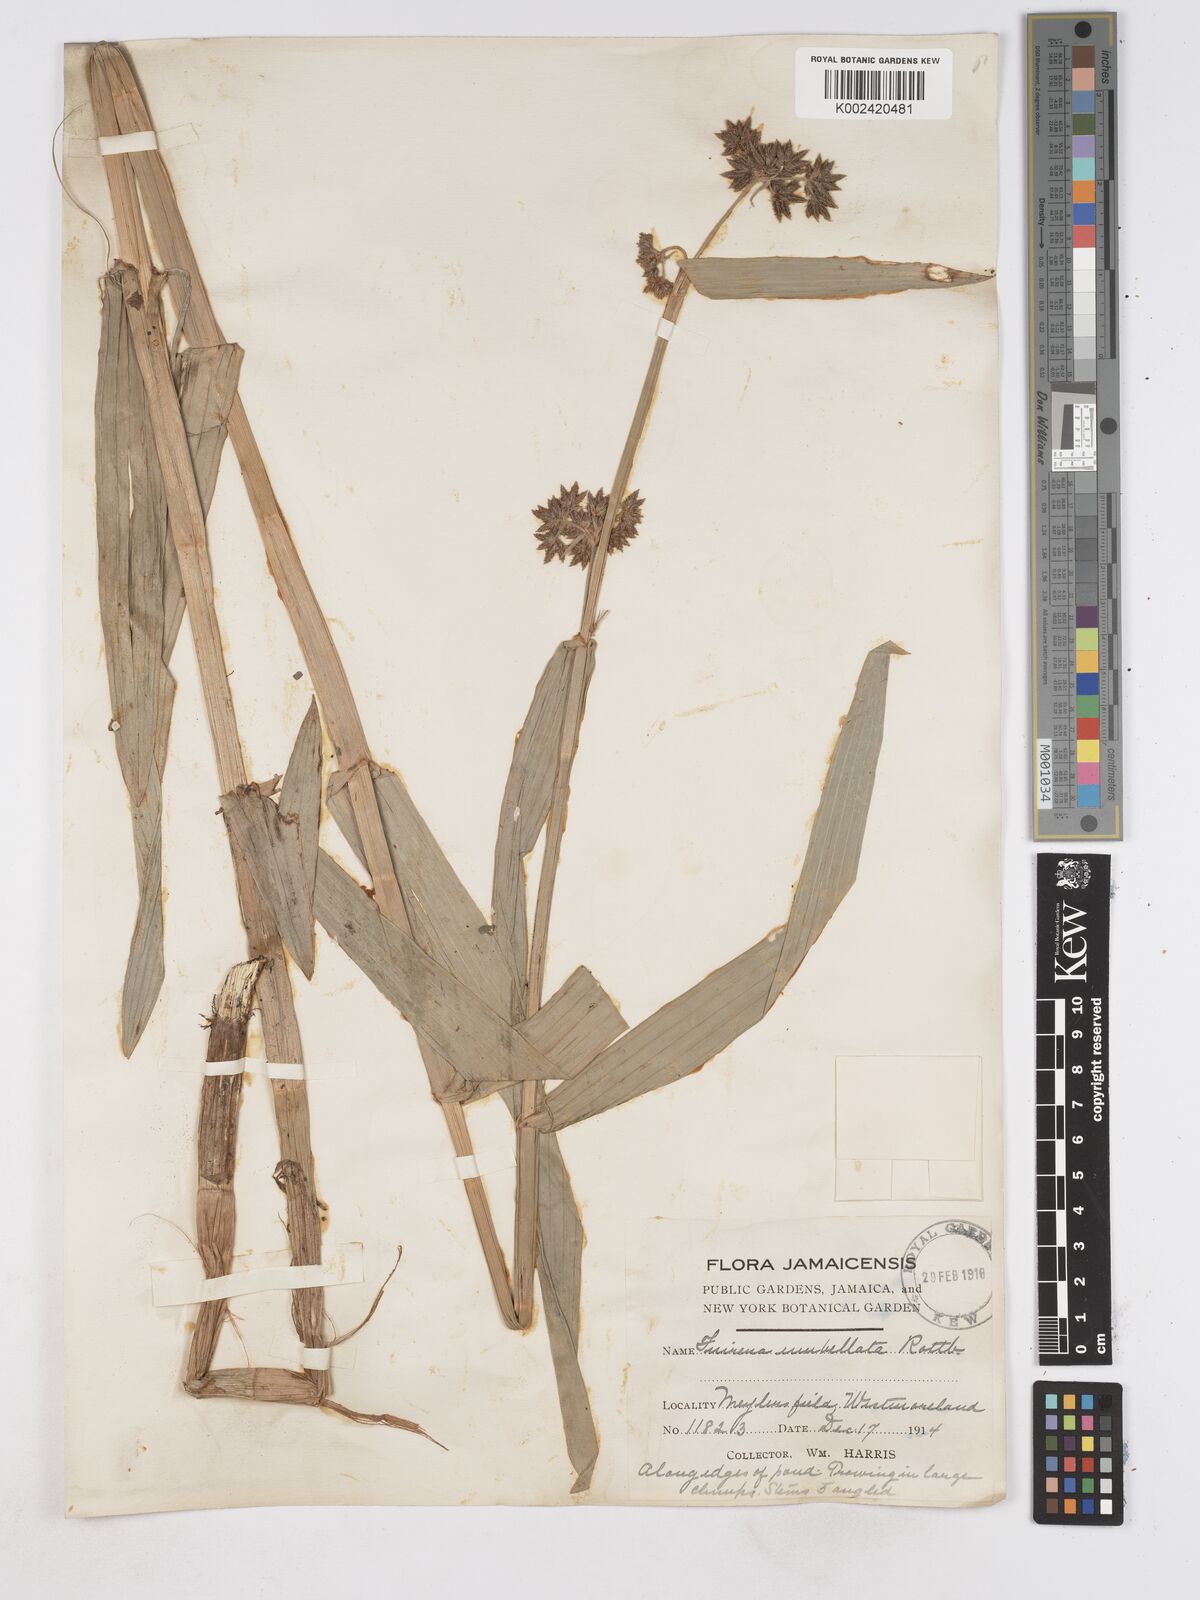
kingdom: Plantae
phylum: Tracheophyta
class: Liliopsida
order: Poales
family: Cyperaceae
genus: Fuirena
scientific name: Fuirena umbellata
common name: Yefen
